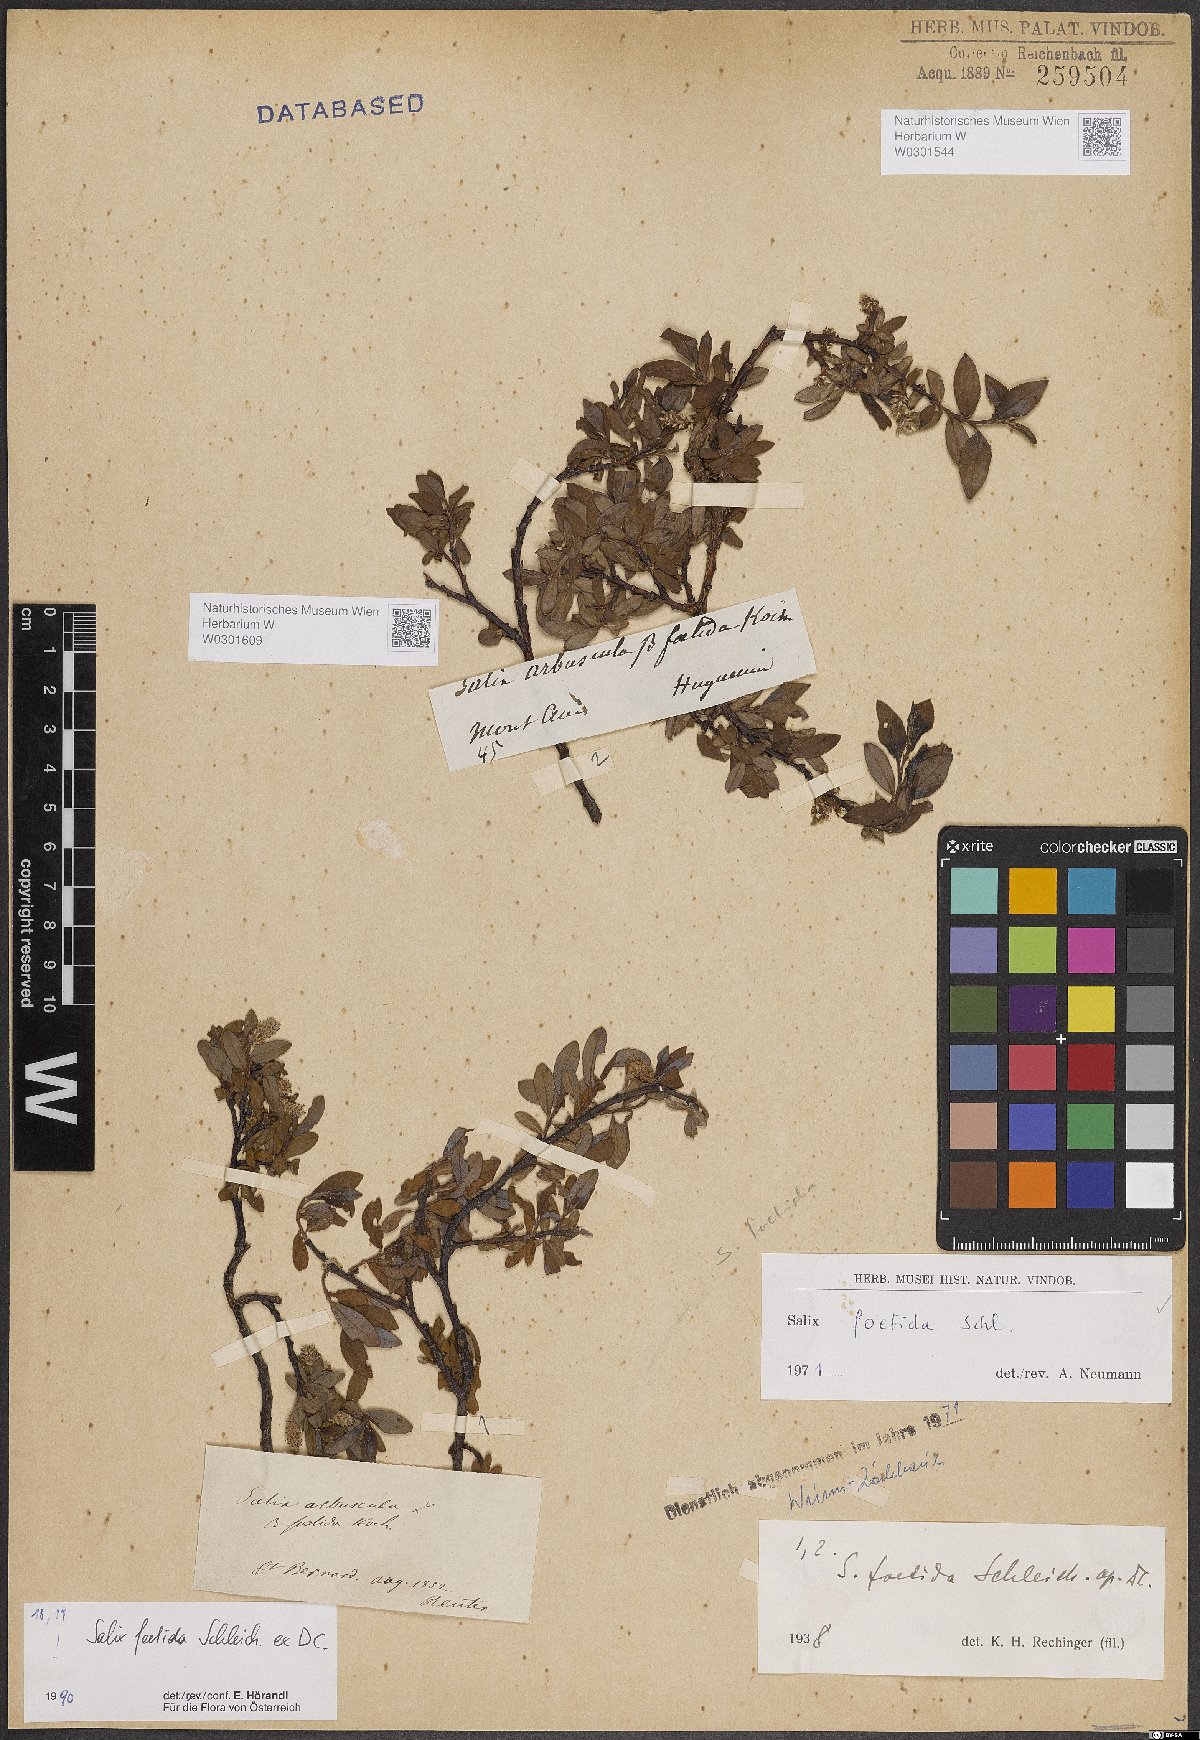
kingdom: Plantae
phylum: Tracheophyta
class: Magnoliopsida
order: Malpighiales
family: Salicaceae
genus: Salix
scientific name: Salix foetida
